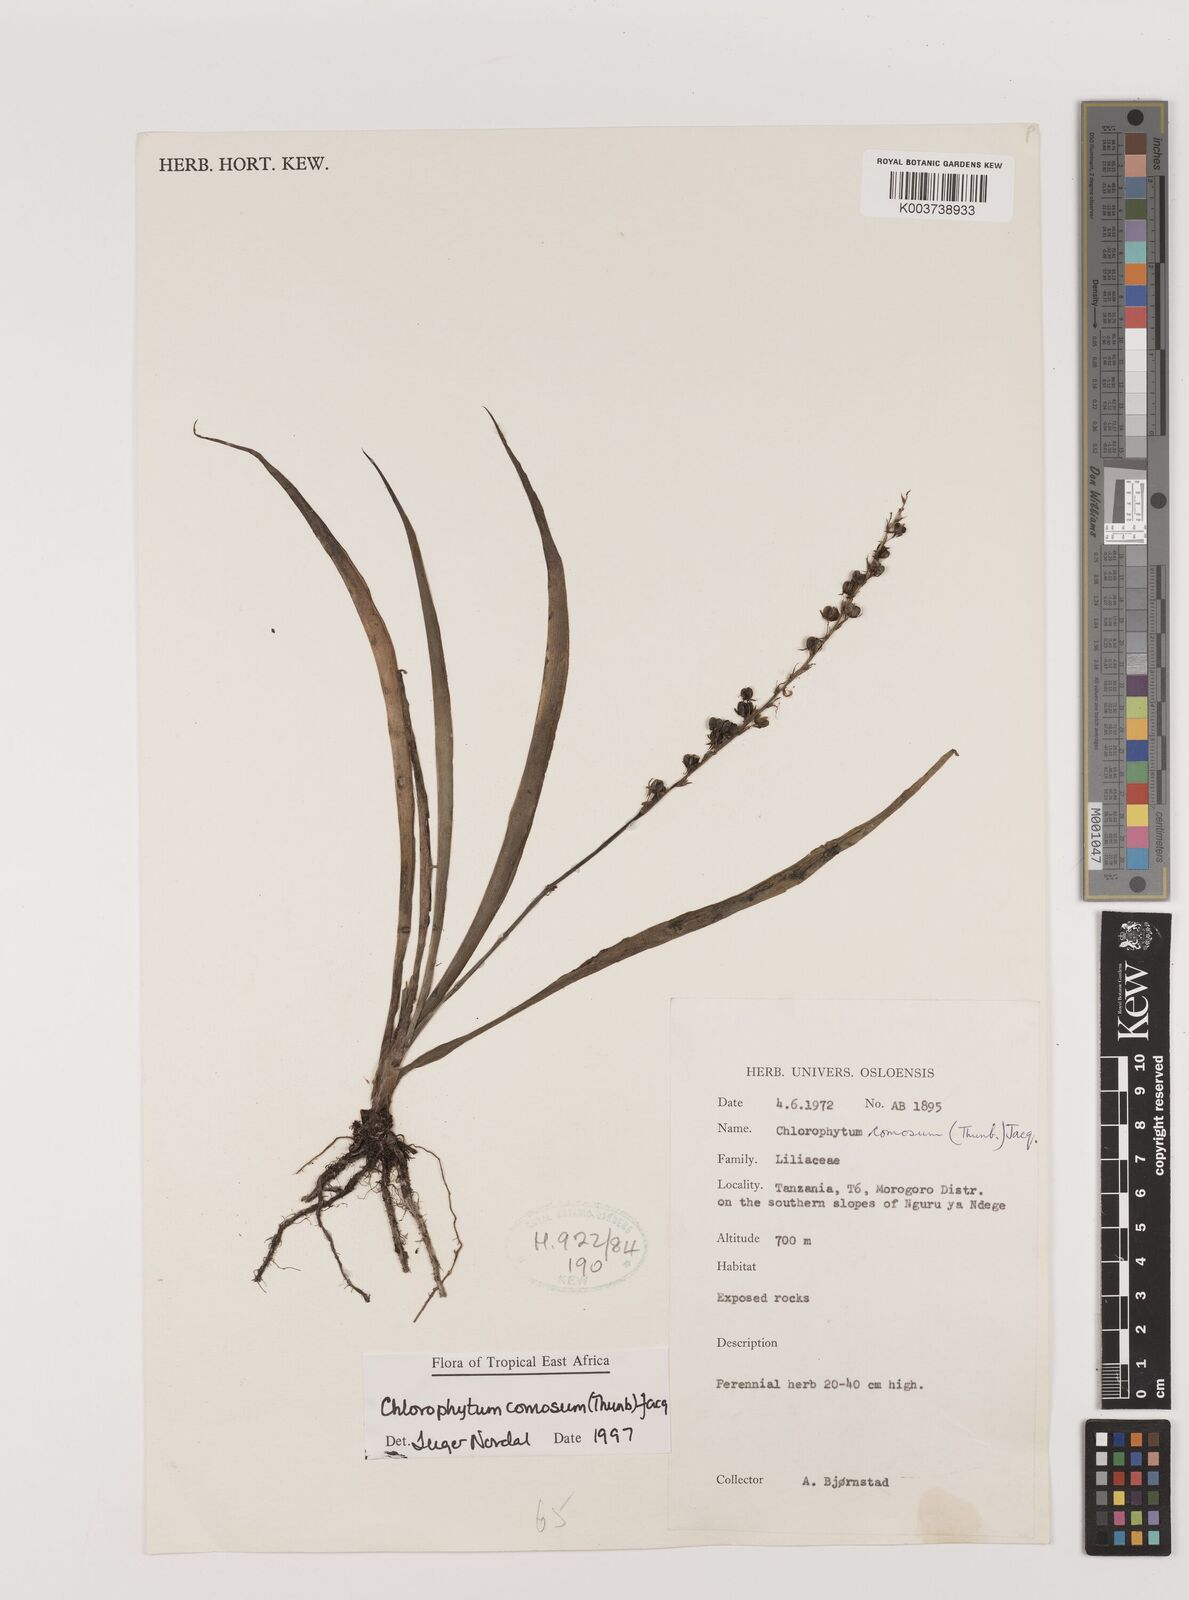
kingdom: Plantae
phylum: Tracheophyta
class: Liliopsida
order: Asparagales
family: Asparagaceae
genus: Chlorophytum
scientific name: Chlorophytum comosum
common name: Spider plant
